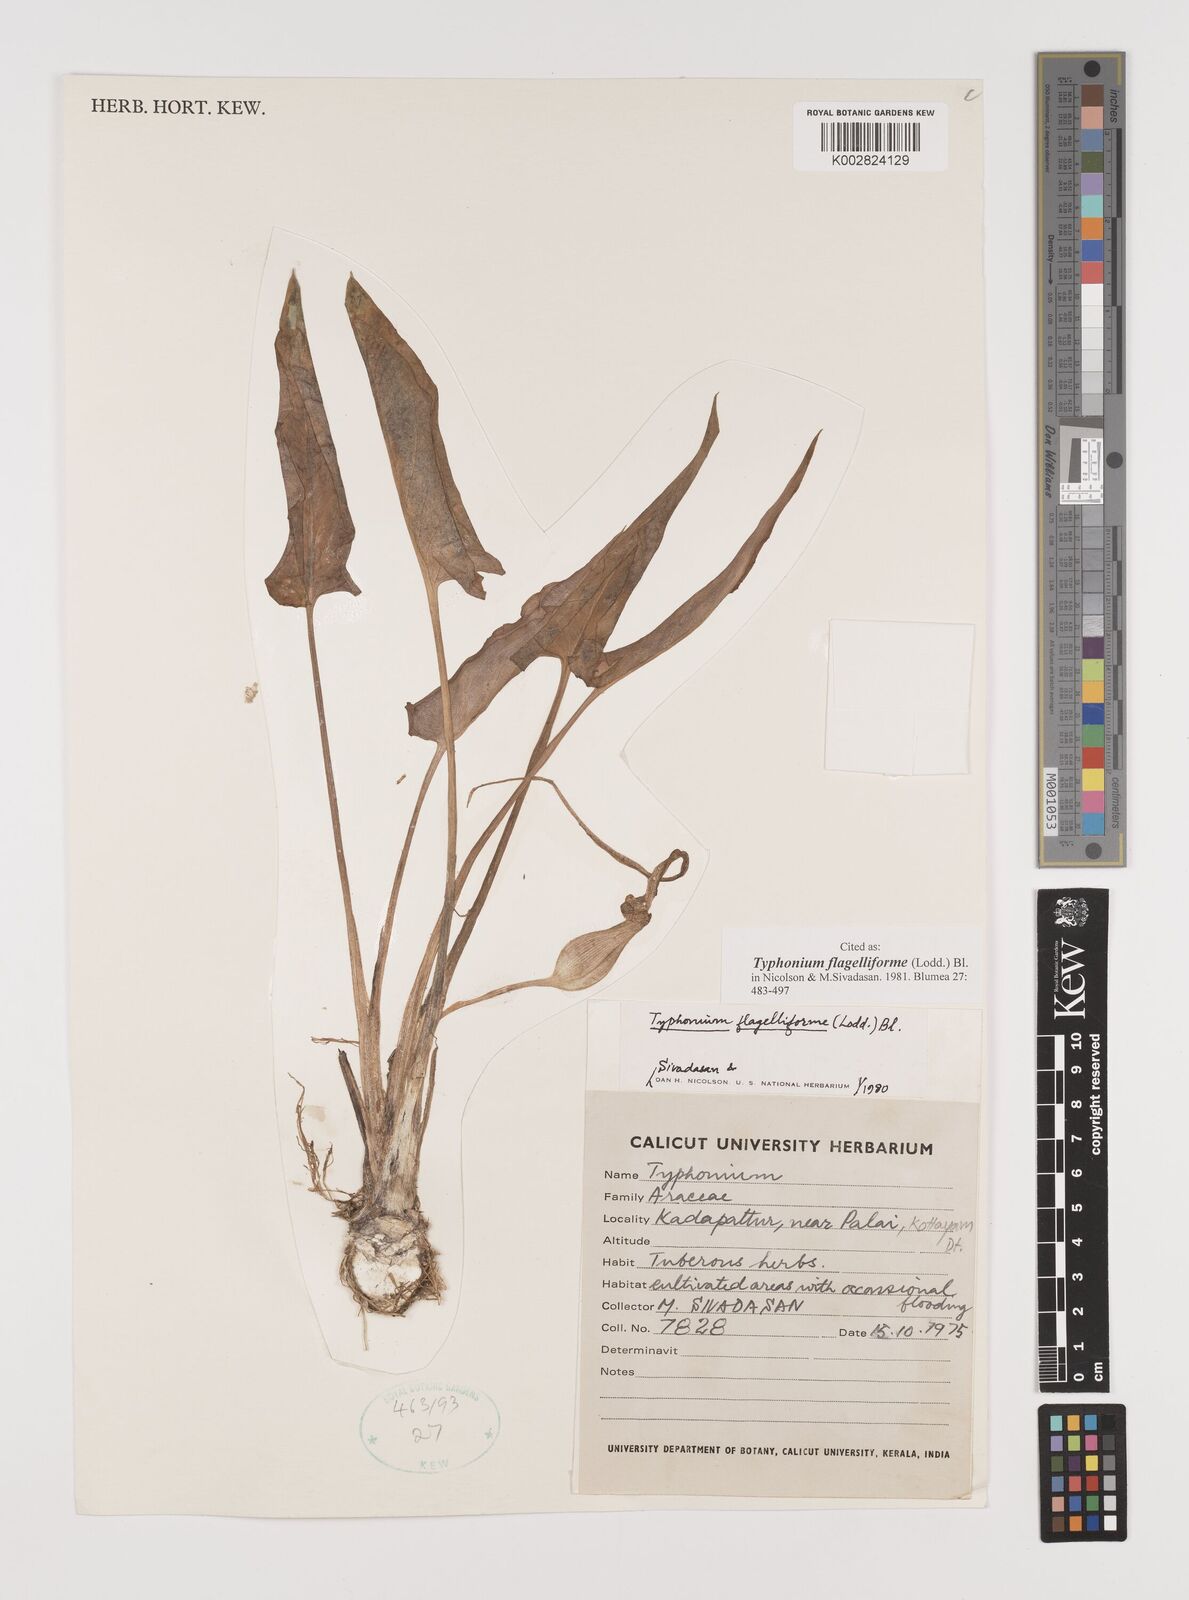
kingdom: Plantae
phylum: Tracheophyta
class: Liliopsida
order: Alismatales
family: Araceae
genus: Typhonium
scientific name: Typhonium flagelliforme
